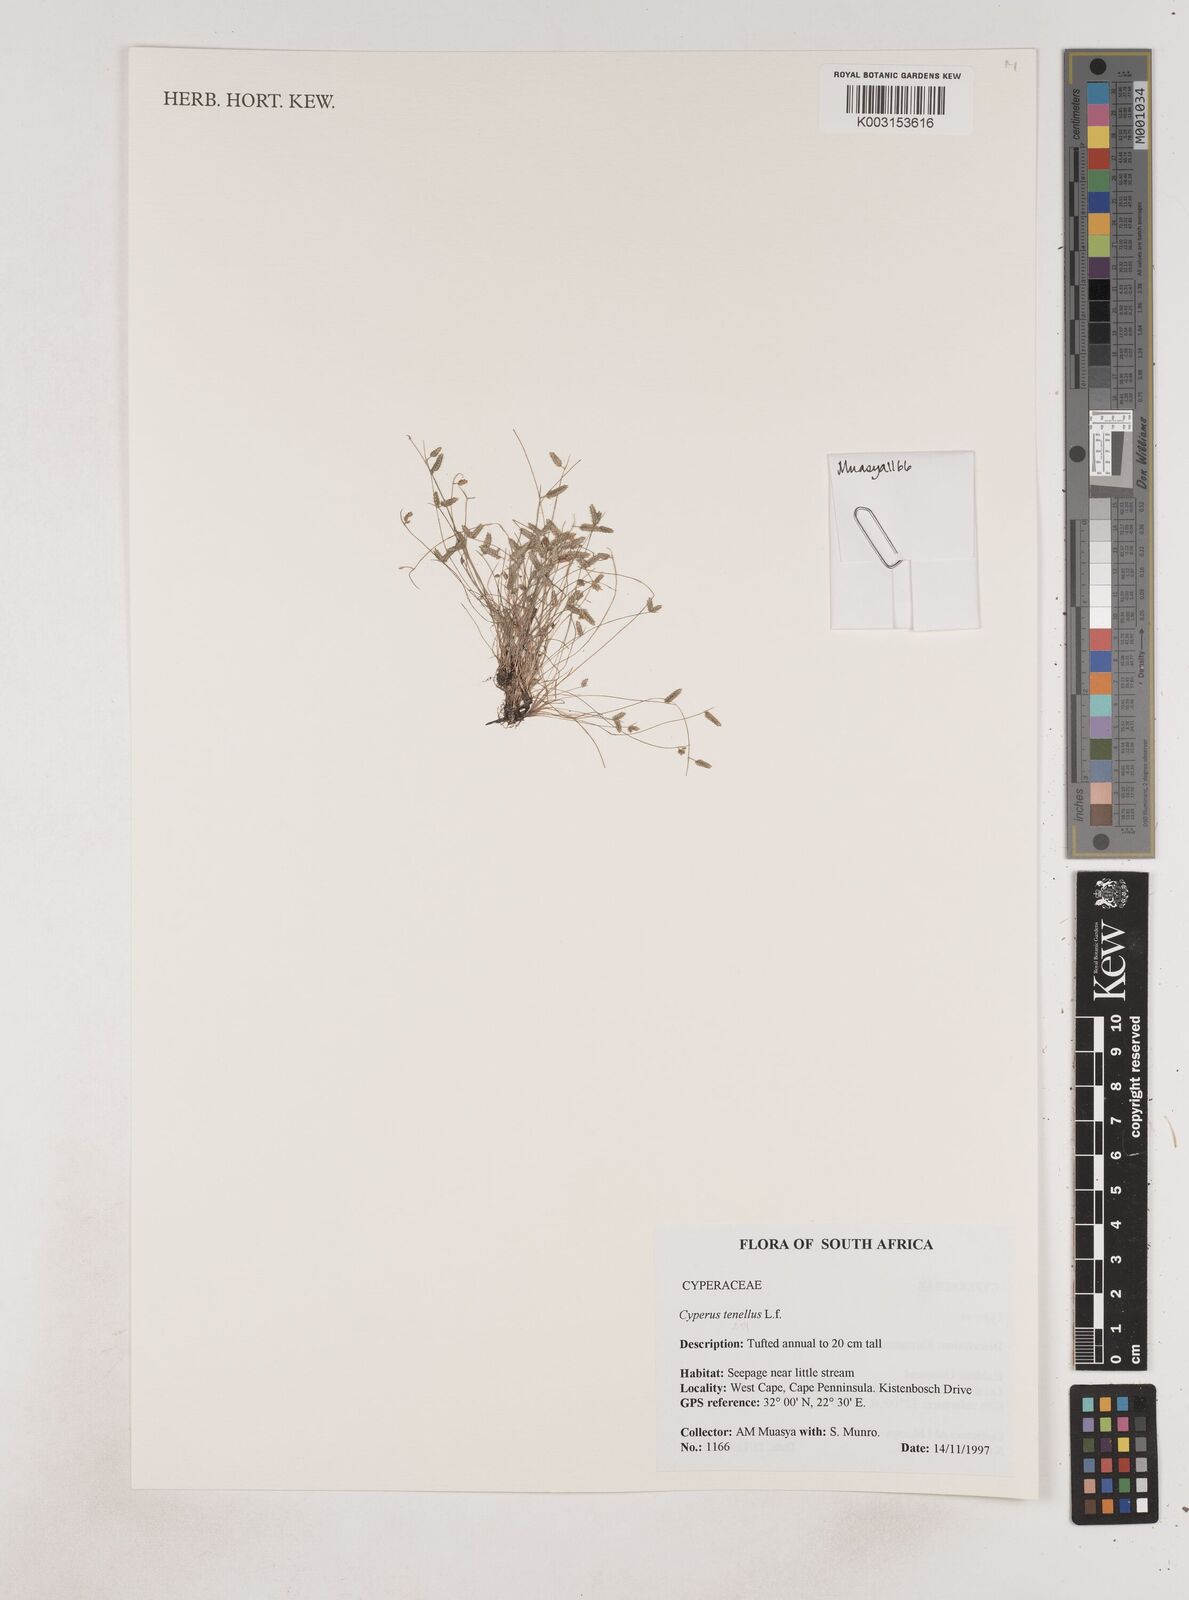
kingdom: Plantae
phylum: Tracheophyta
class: Liliopsida
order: Poales
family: Cyperaceae
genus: Isolepis
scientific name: Isolepis levynsiana
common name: Sedge
